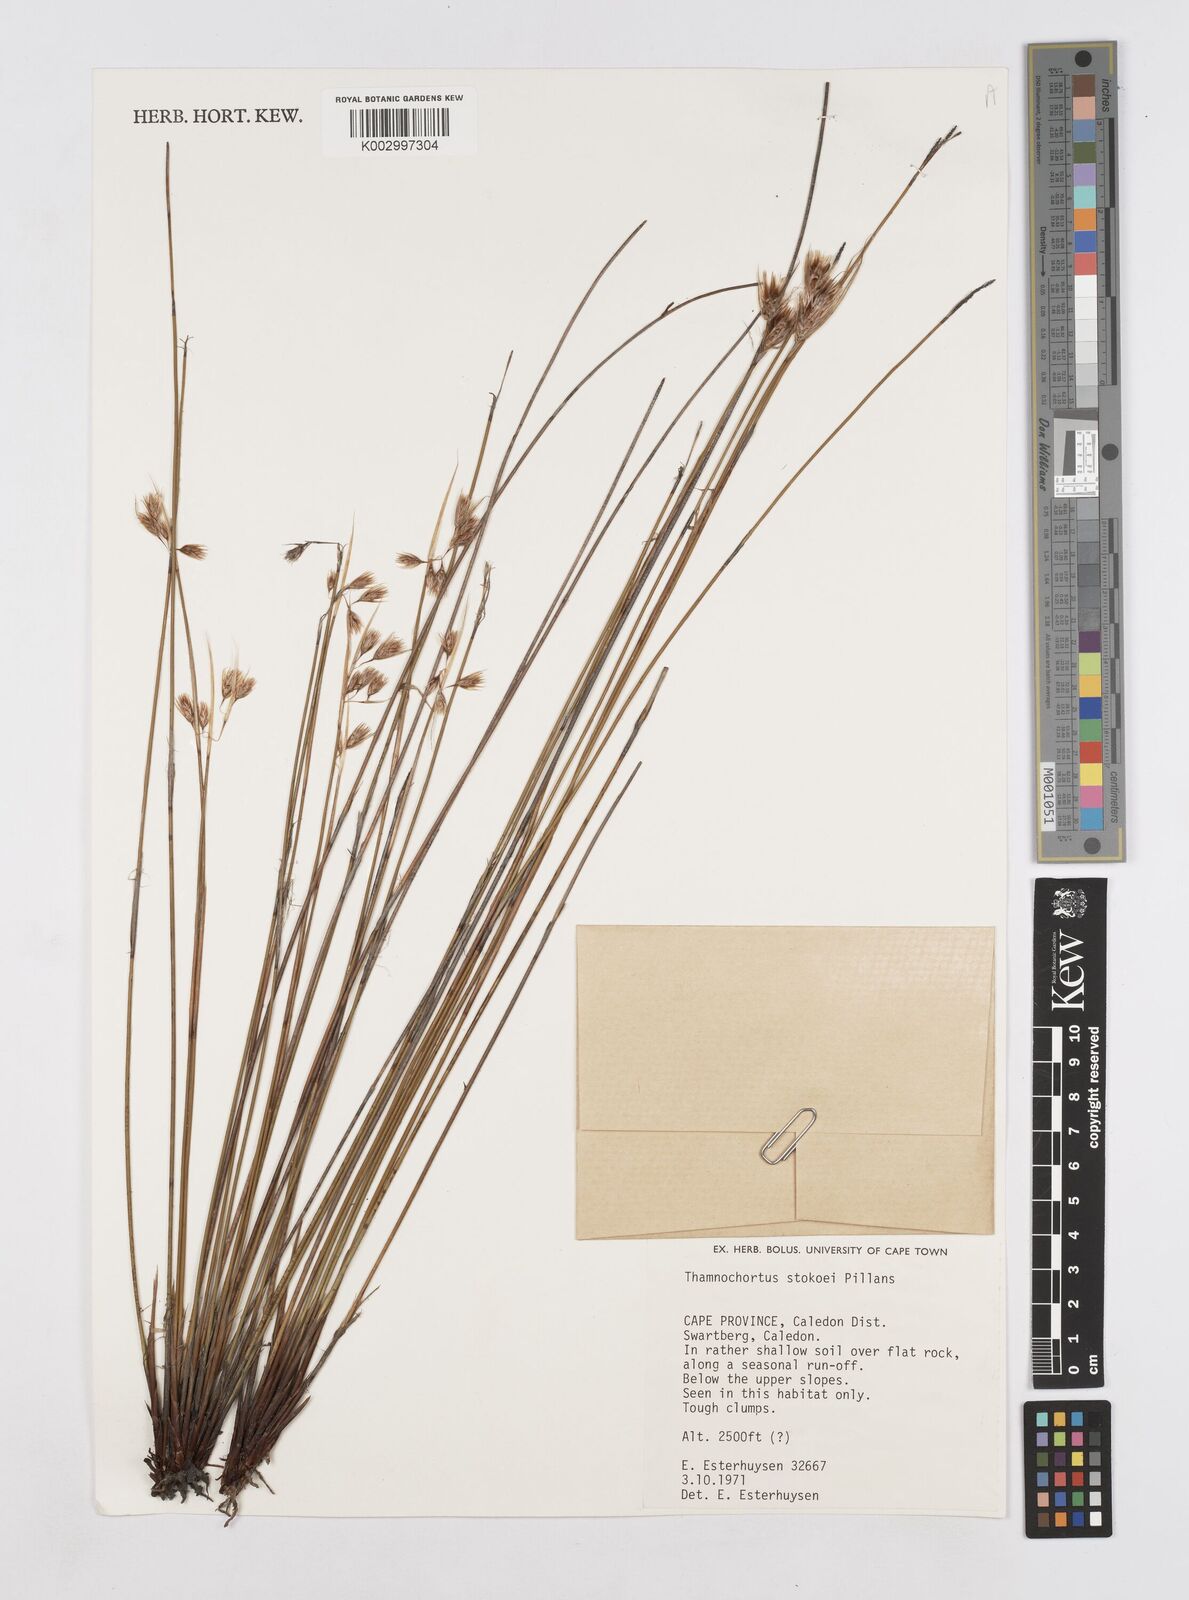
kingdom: Plantae
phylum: Tracheophyta
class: Liliopsida
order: Poales
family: Restionaceae
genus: Thamnochortus
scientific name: Thamnochortus stokoei
